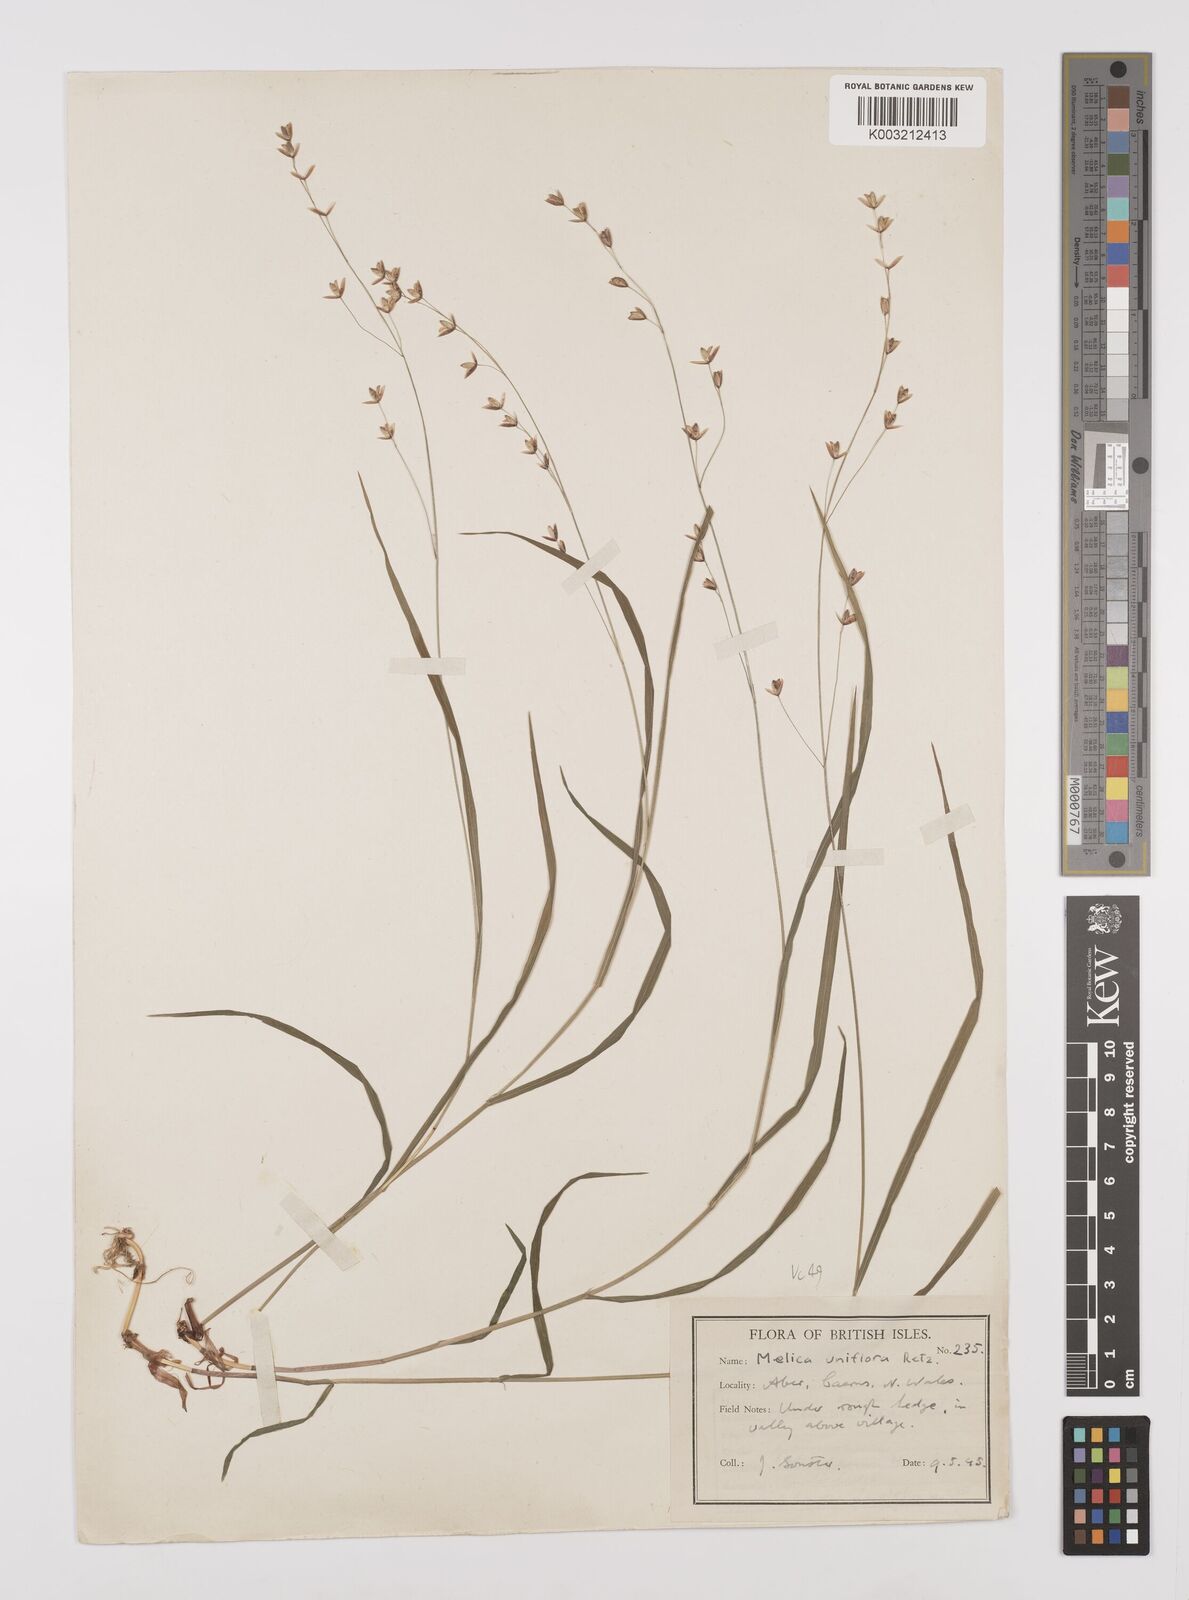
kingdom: Plantae
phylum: Tracheophyta
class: Liliopsida
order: Poales
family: Poaceae
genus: Melica
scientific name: Melica uniflora
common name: Wood melick
